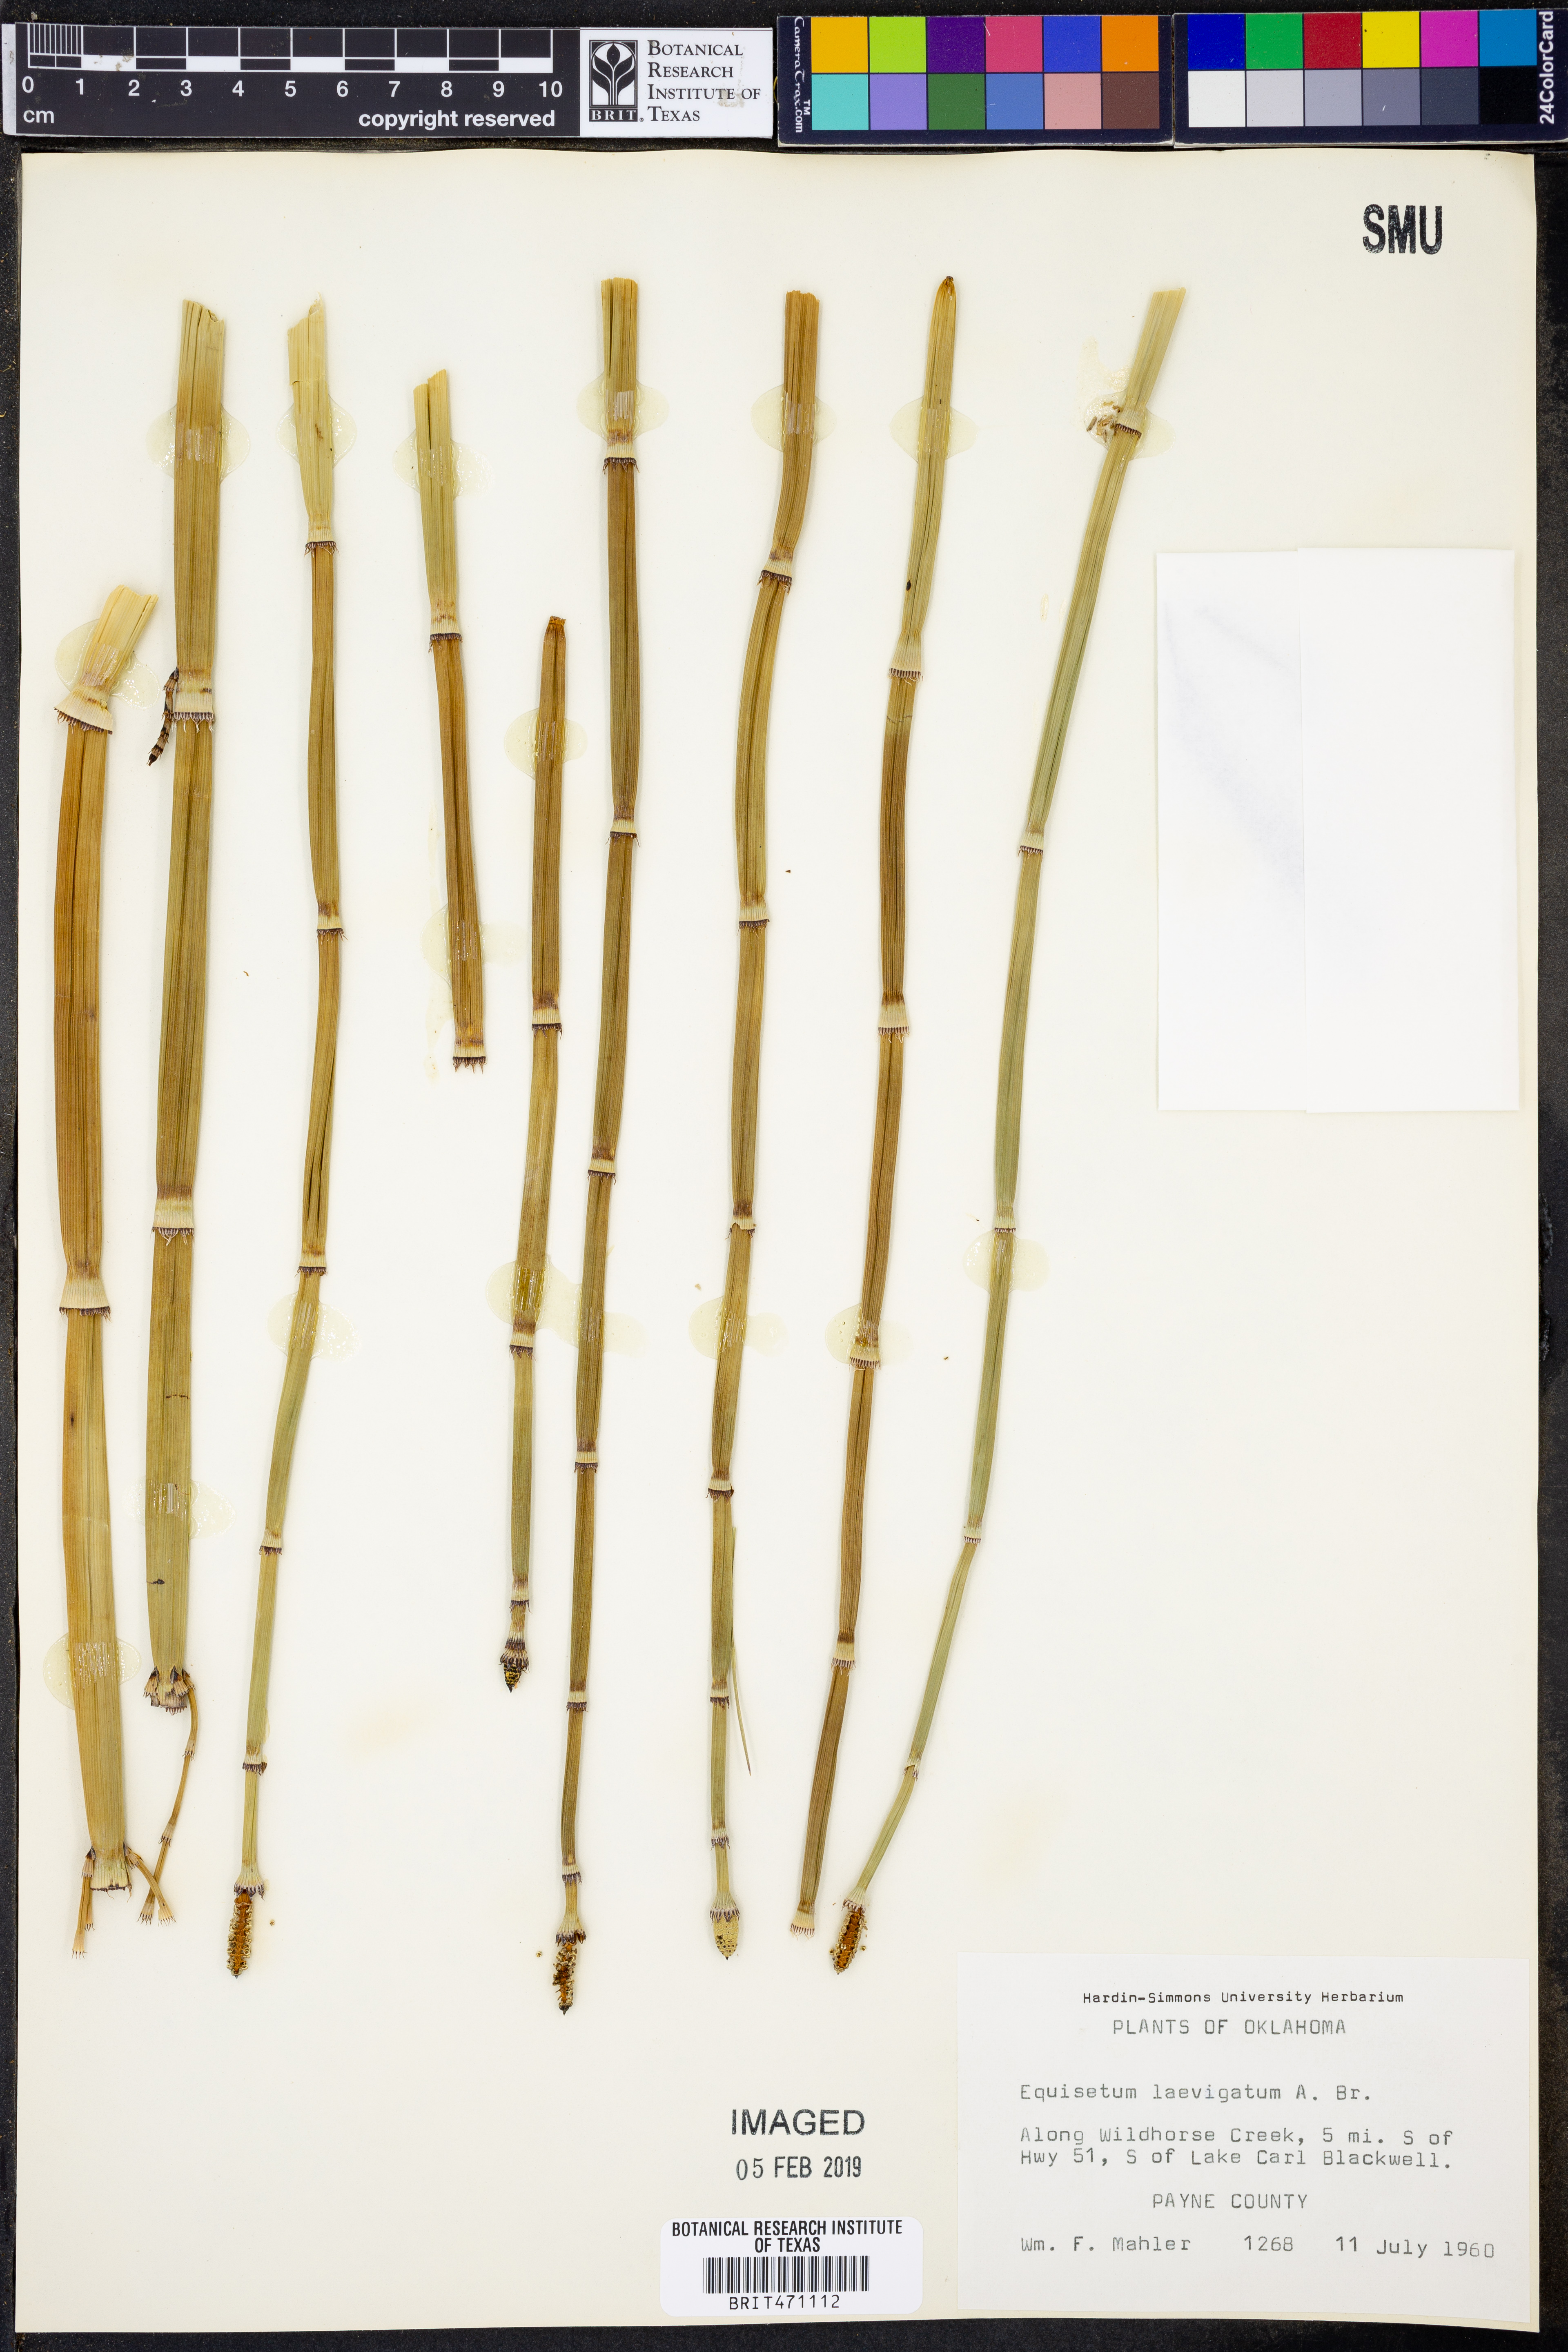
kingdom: Plantae
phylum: Tracheophyta
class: Polypodiopsida
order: Equisetales
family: Equisetaceae
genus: Equisetum
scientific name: Equisetum laevigatum
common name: Smooth scouring-rush
